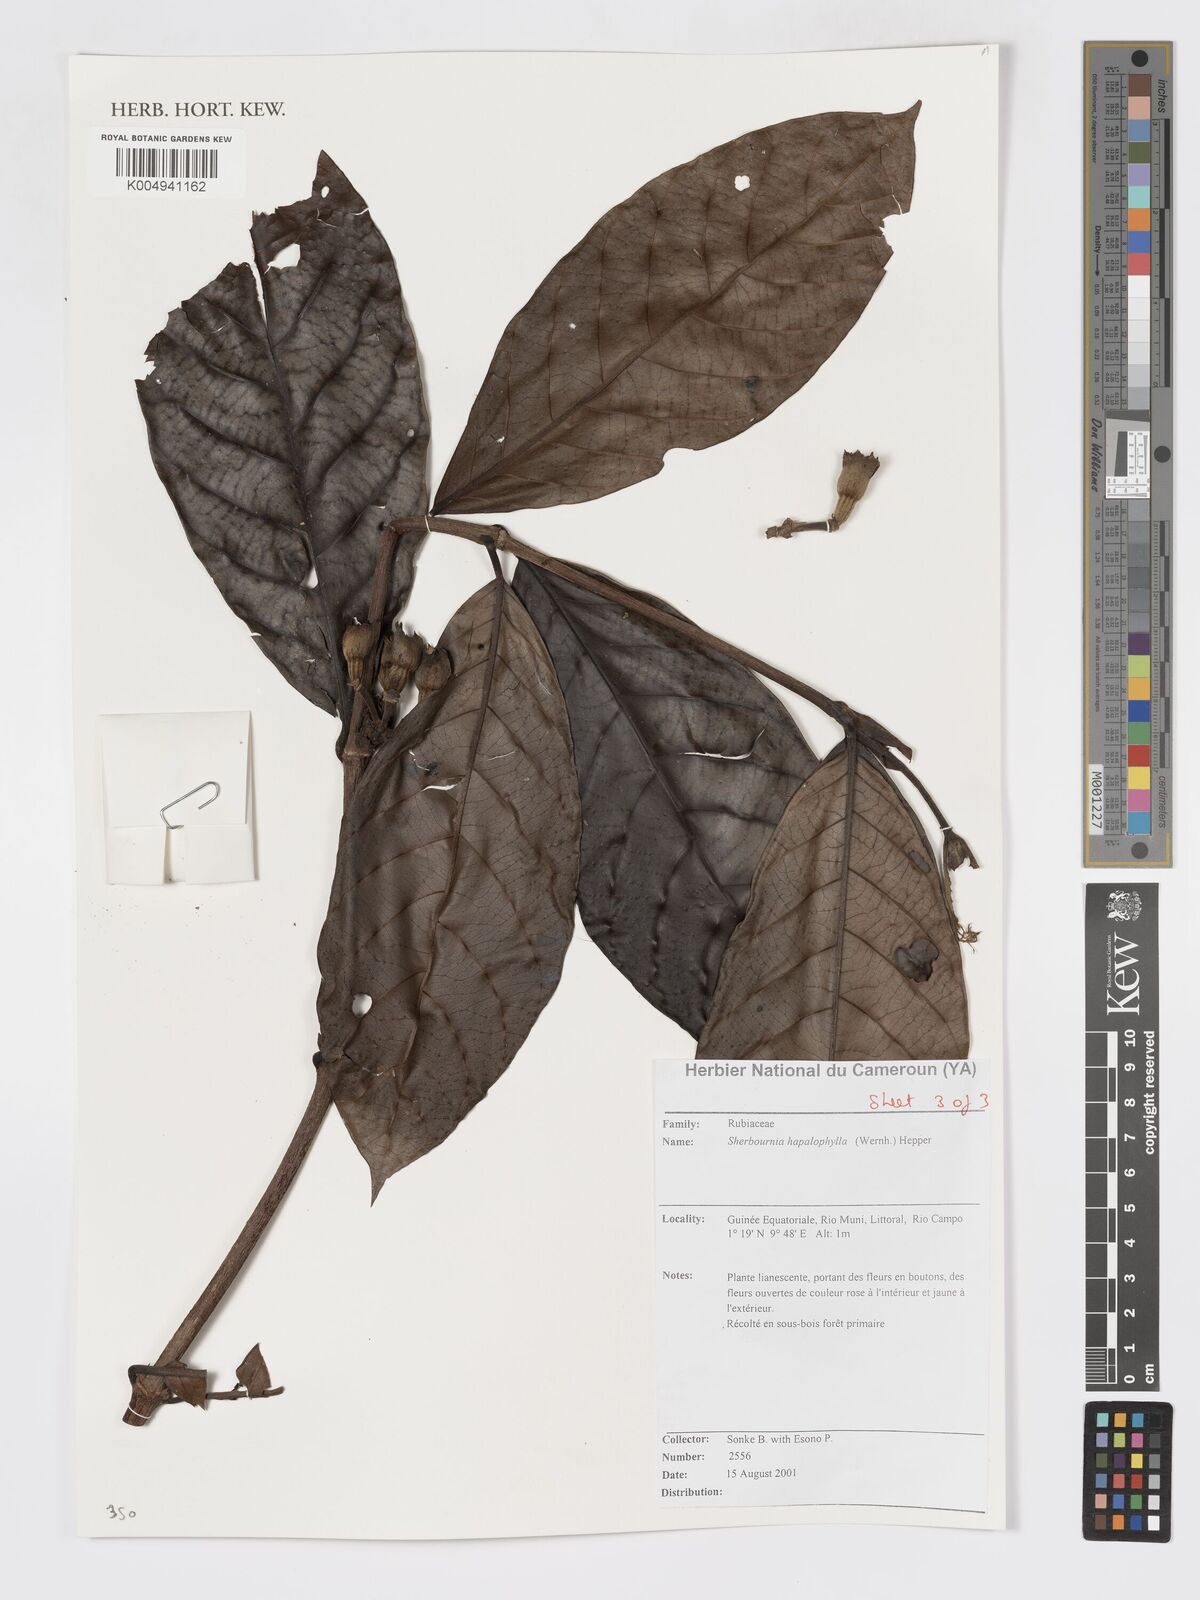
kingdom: Plantae
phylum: Tracheophyta
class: Magnoliopsida
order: Gentianales
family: Rubiaceae
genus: Sherbournia
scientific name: Sherbournia hapalophylla
